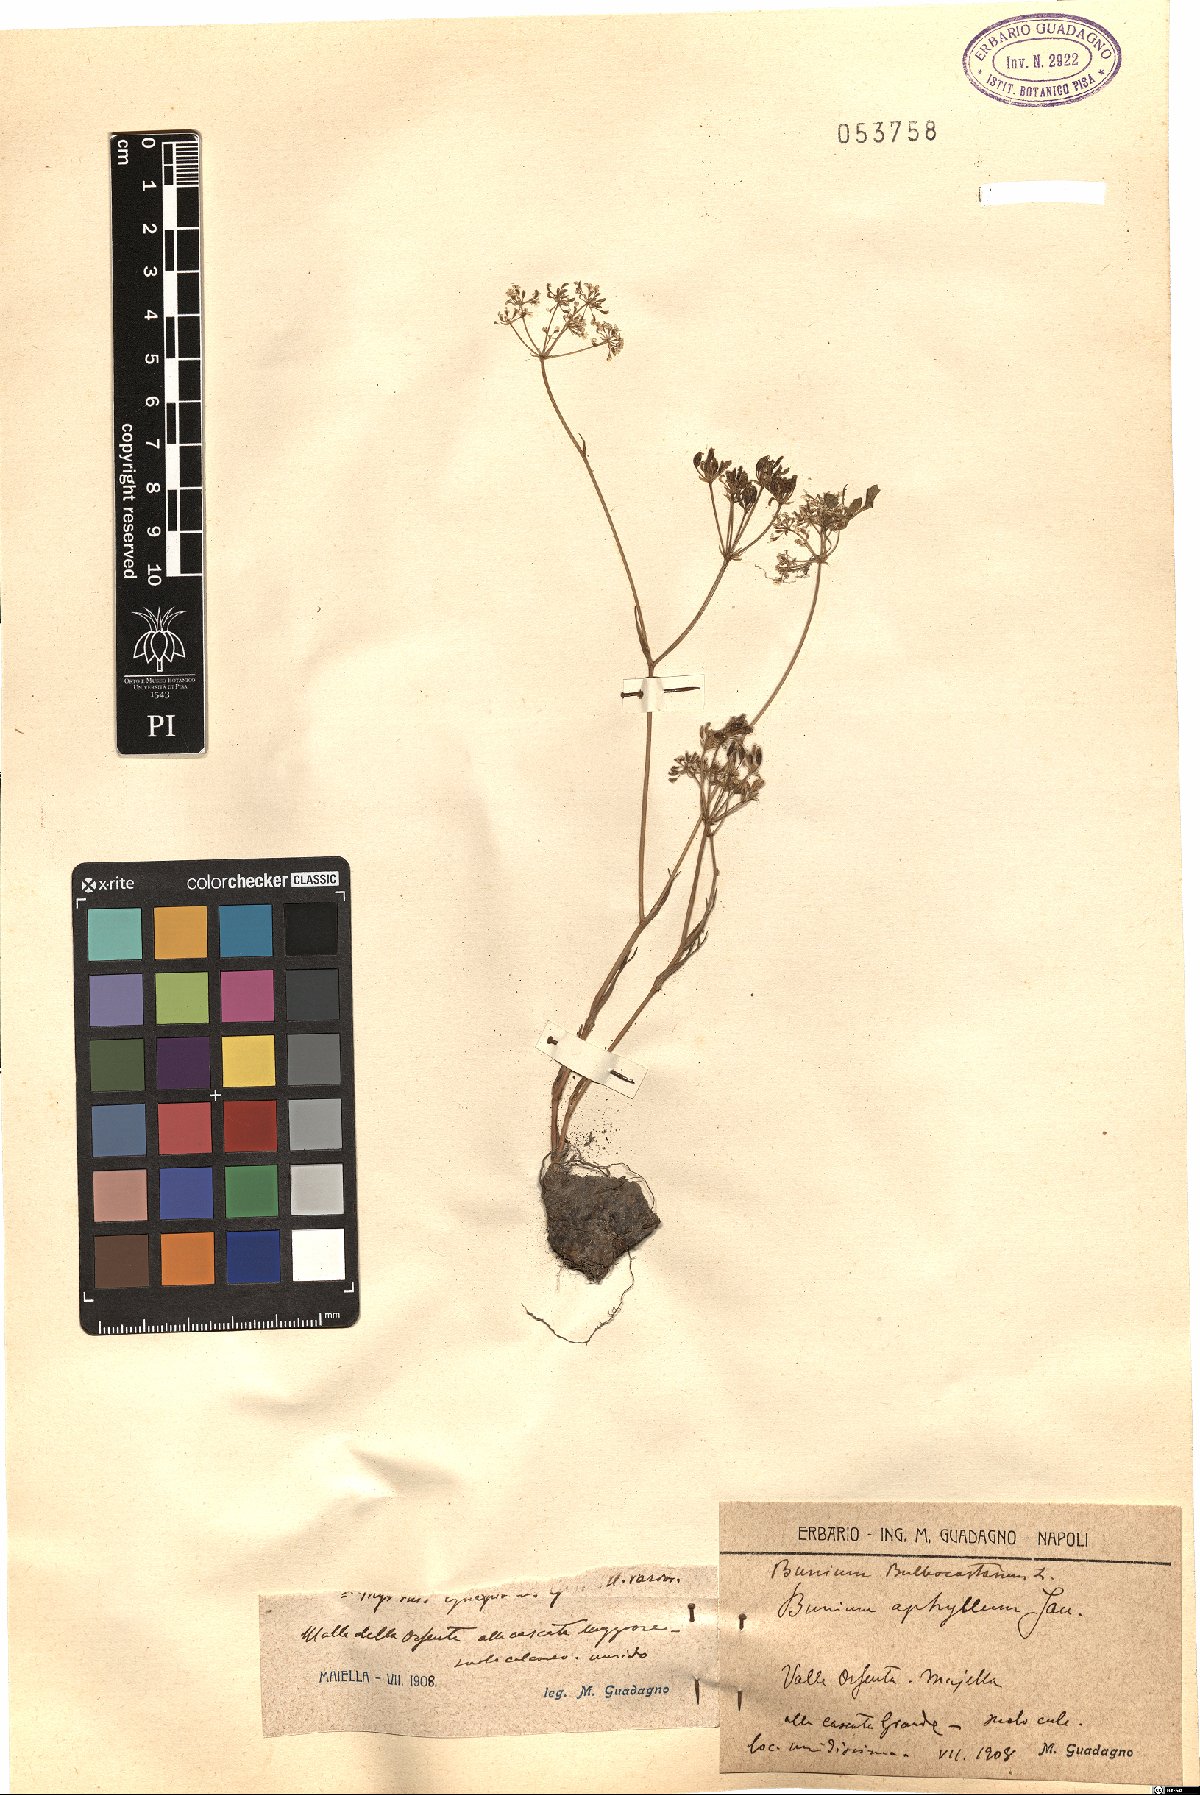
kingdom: Plantae
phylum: Tracheophyta
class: Magnoliopsida
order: Apiales
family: Apiaceae
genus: Bunium
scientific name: Bunium bulbocastanum
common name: Great pignut
